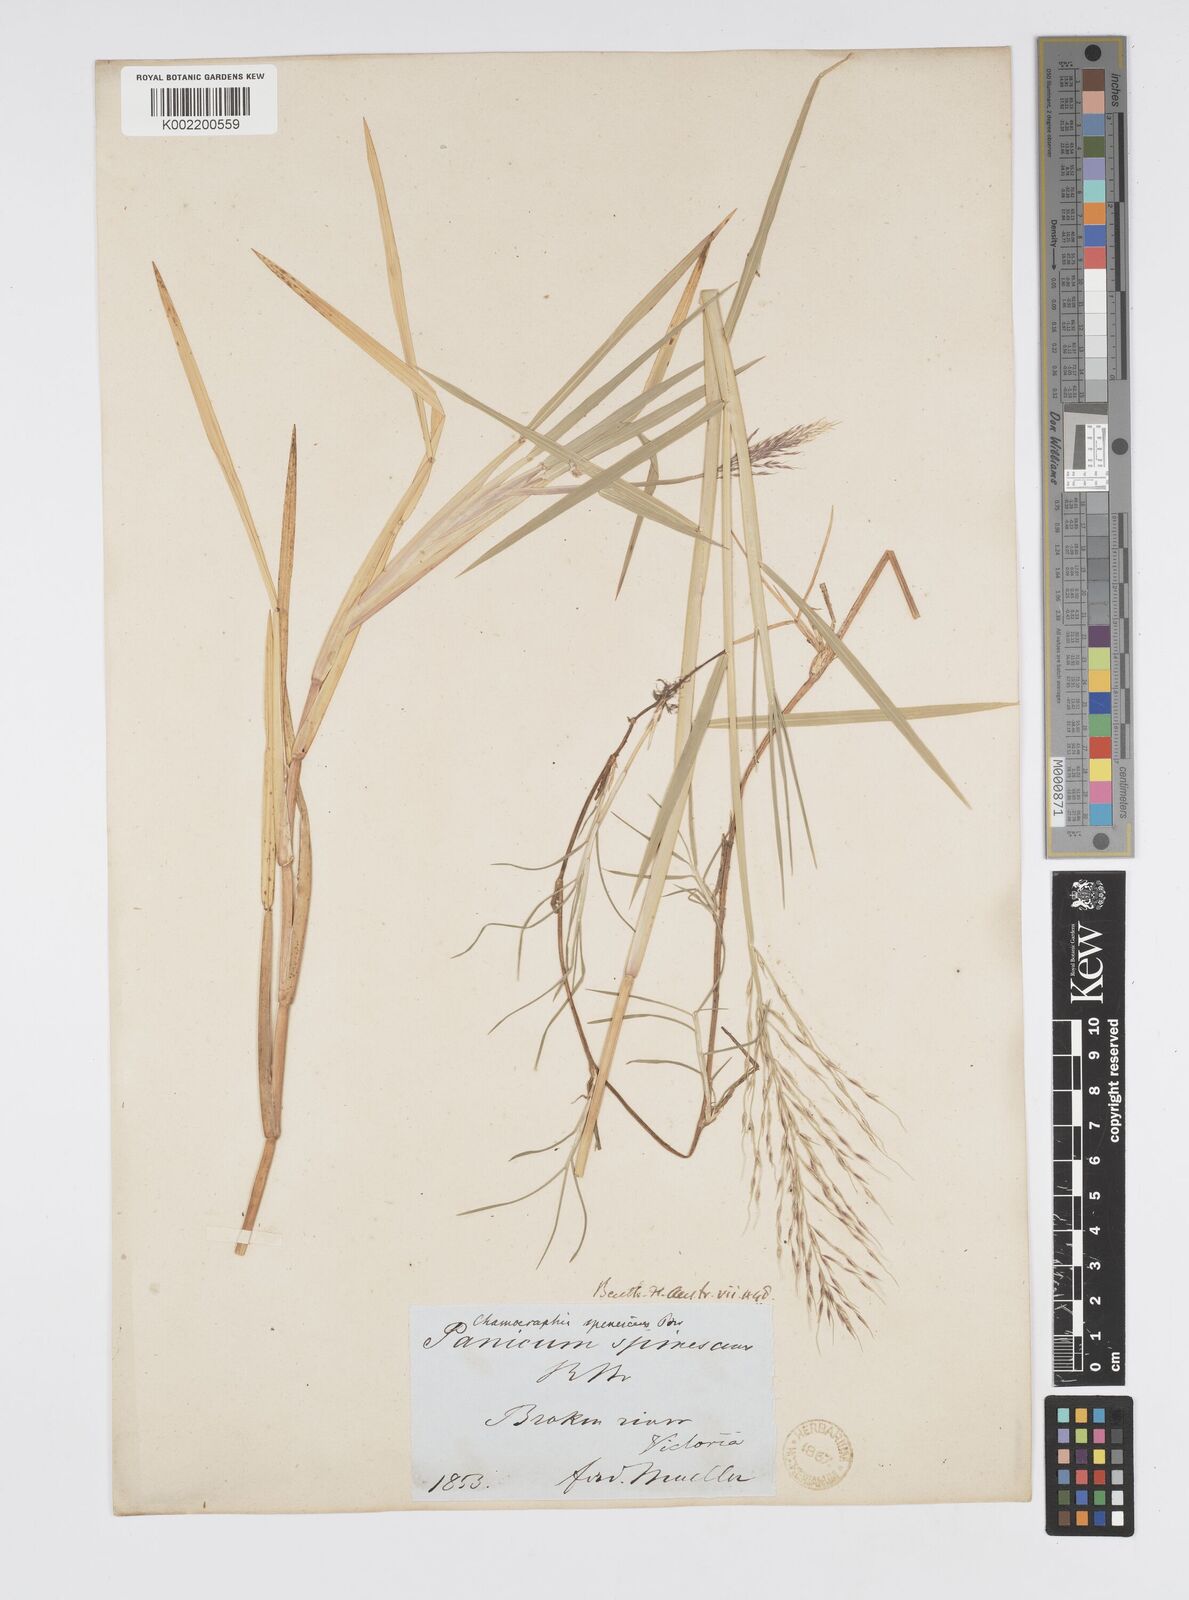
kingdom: Plantae
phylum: Tracheophyta
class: Liliopsida
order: Poales
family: Poaceae
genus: Pseudoraphis
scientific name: Pseudoraphis spinescens
